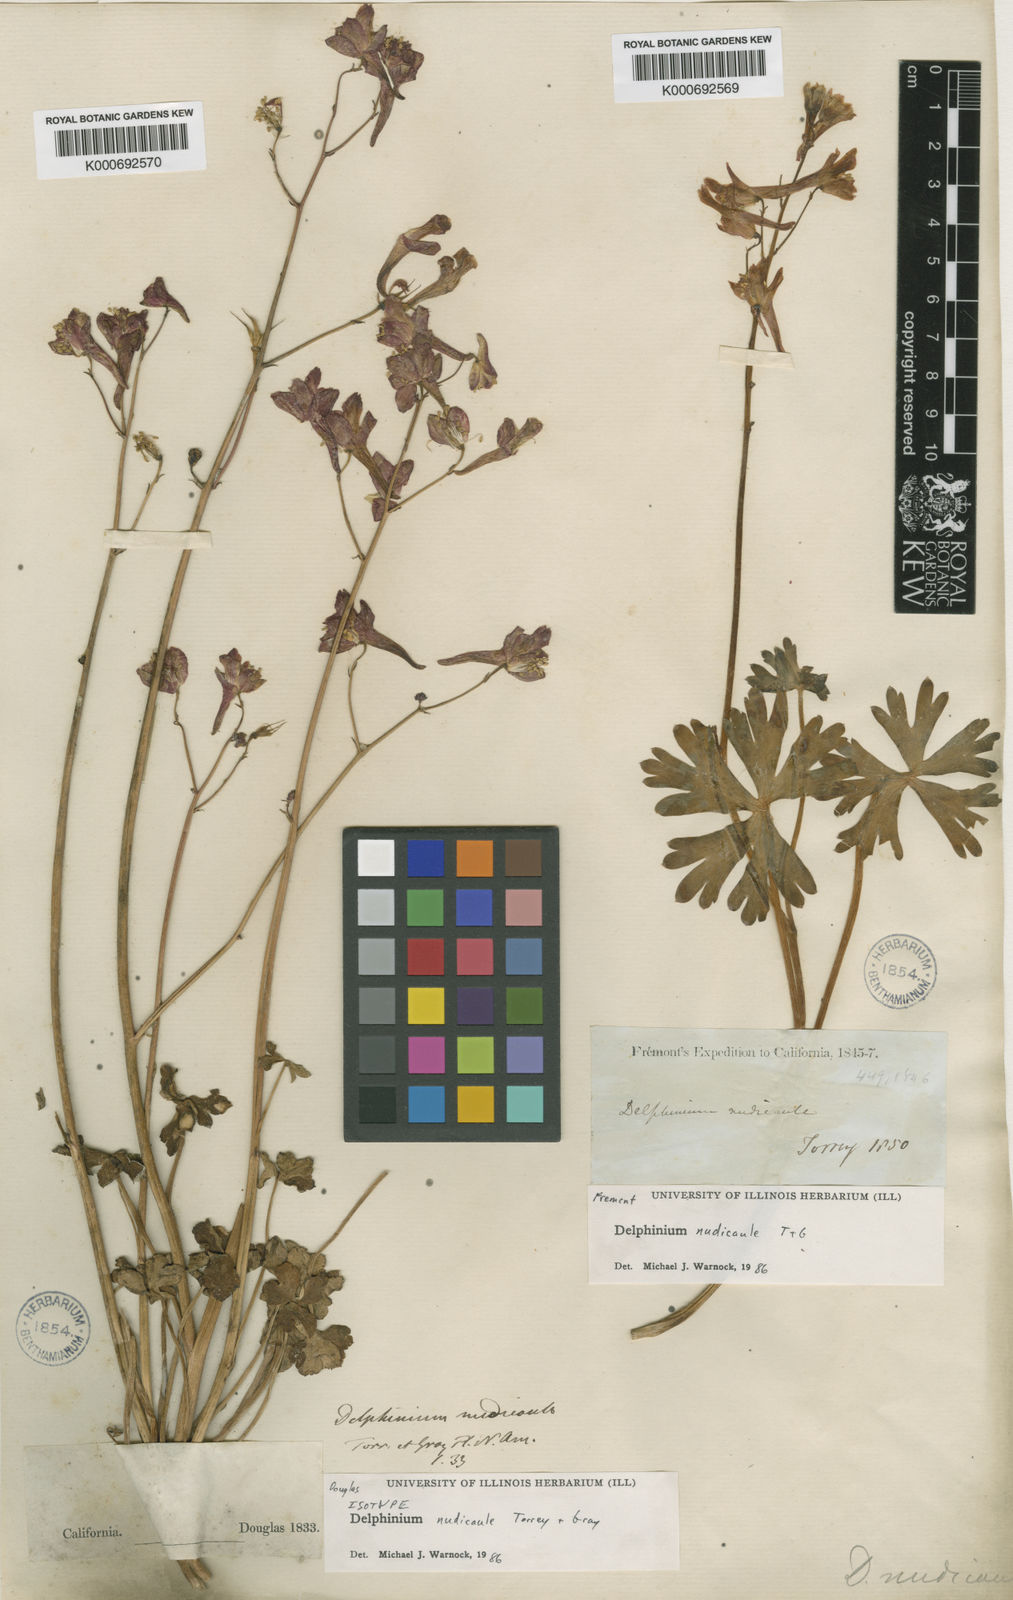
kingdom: Plantae
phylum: Tracheophyta
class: Magnoliopsida
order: Ranunculales
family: Ranunculaceae
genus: Delphinium
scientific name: Delphinium nudicaule
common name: Red larkspur
